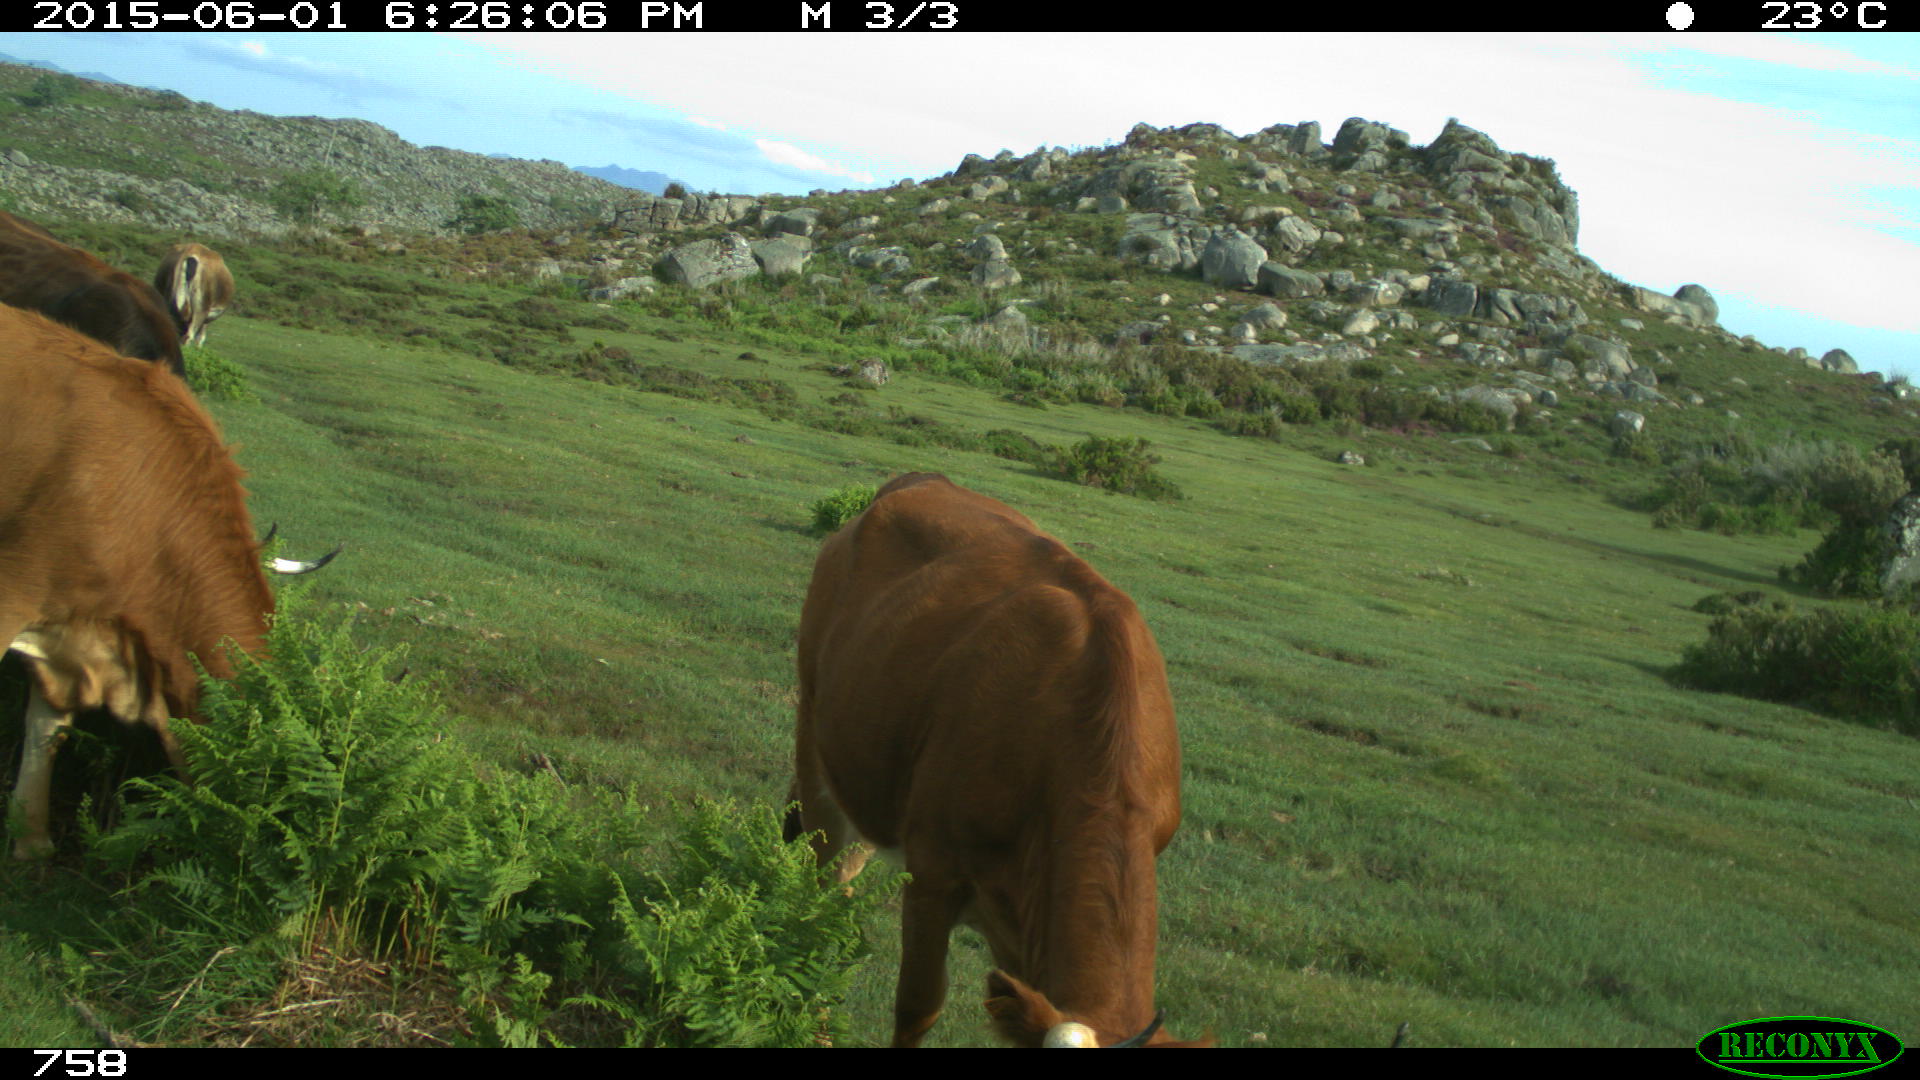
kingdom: Animalia
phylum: Chordata
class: Mammalia
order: Artiodactyla
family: Bovidae
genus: Bos
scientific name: Bos taurus
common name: Domesticated cattle
